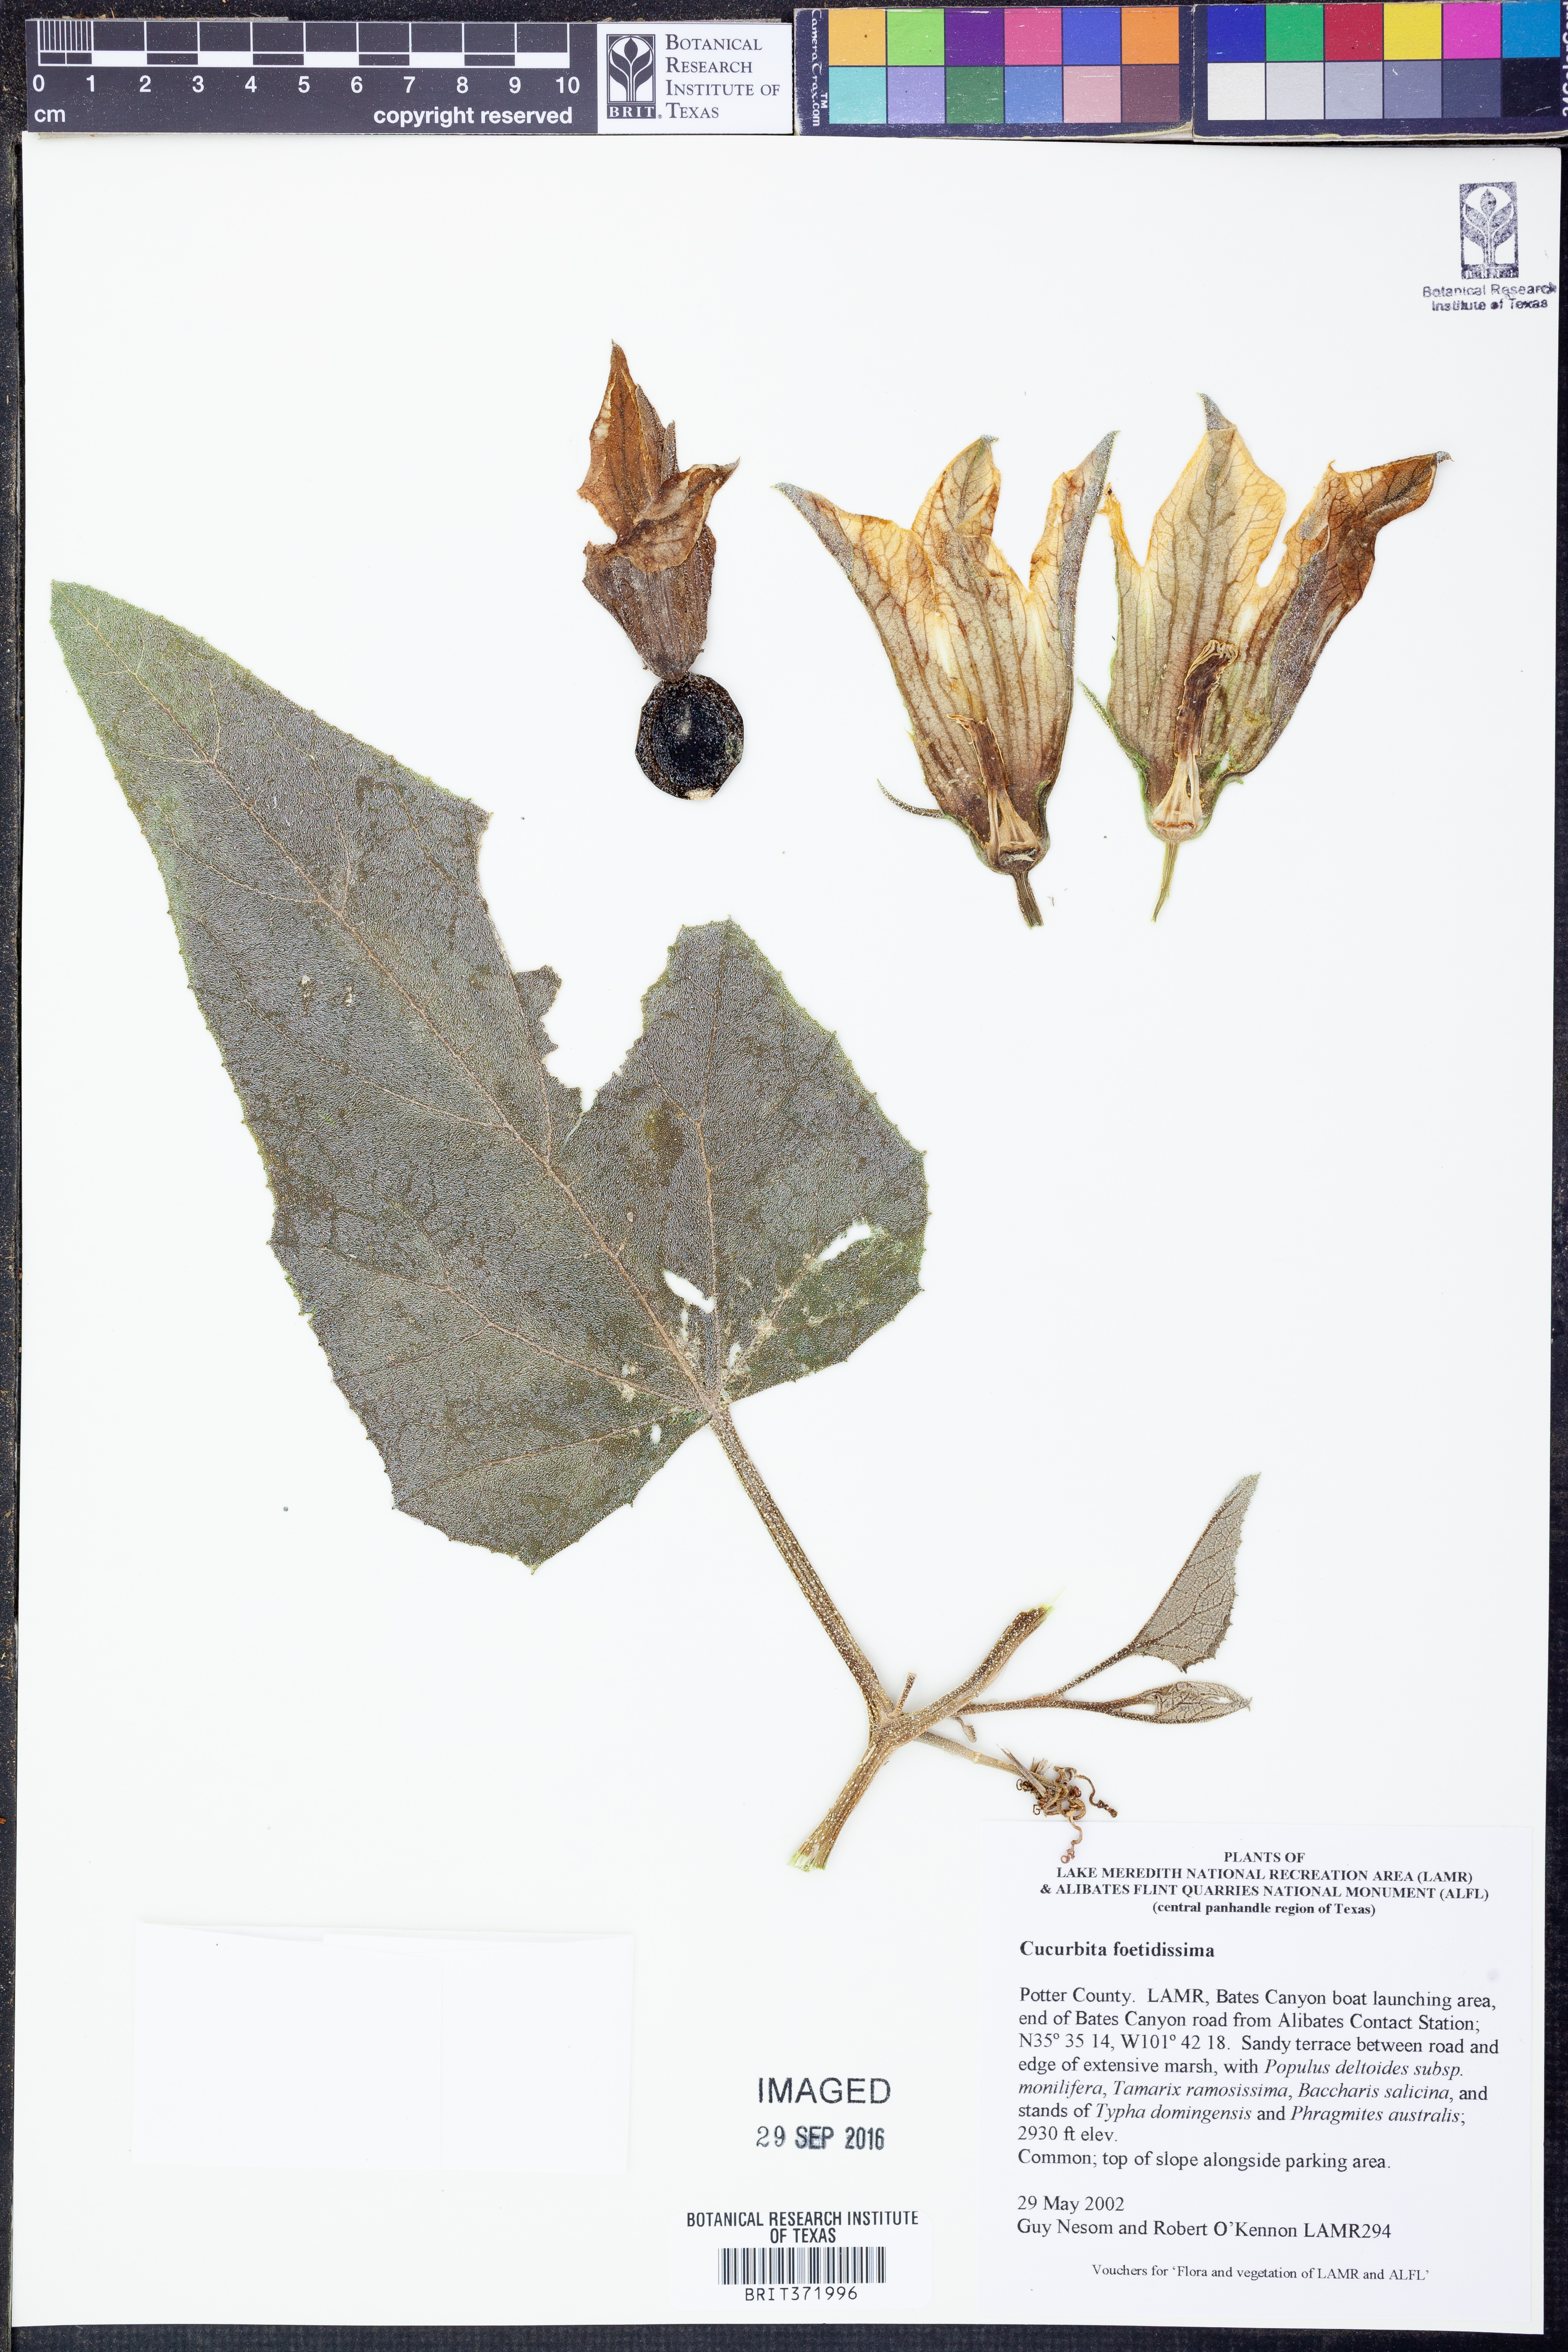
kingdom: Plantae
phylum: Tracheophyta
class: Magnoliopsida
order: Cucurbitales
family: Cucurbitaceae
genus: Cucurbita
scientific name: Cucurbita foetidissima
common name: Buffalo gourd
